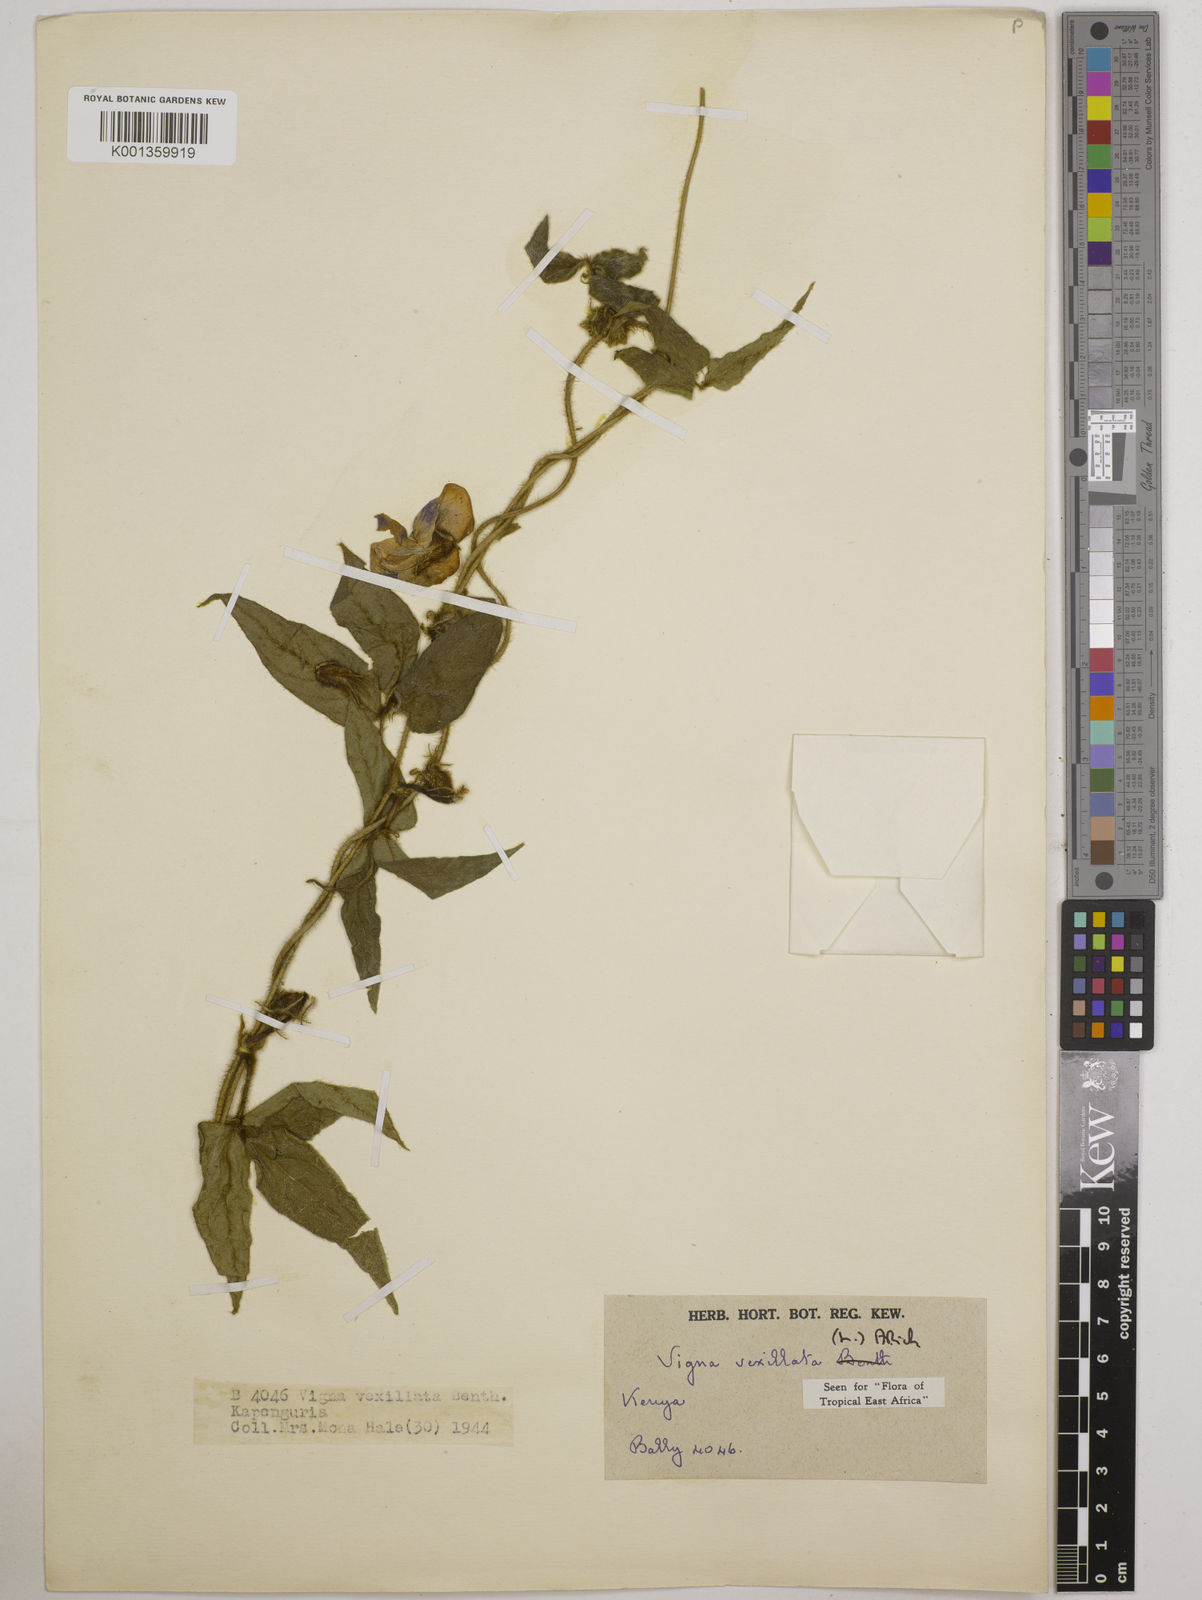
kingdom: Plantae
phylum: Tracheophyta
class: Magnoliopsida
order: Fabales
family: Fabaceae
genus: Vigna
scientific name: Vigna vexillata
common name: Zombi pea
